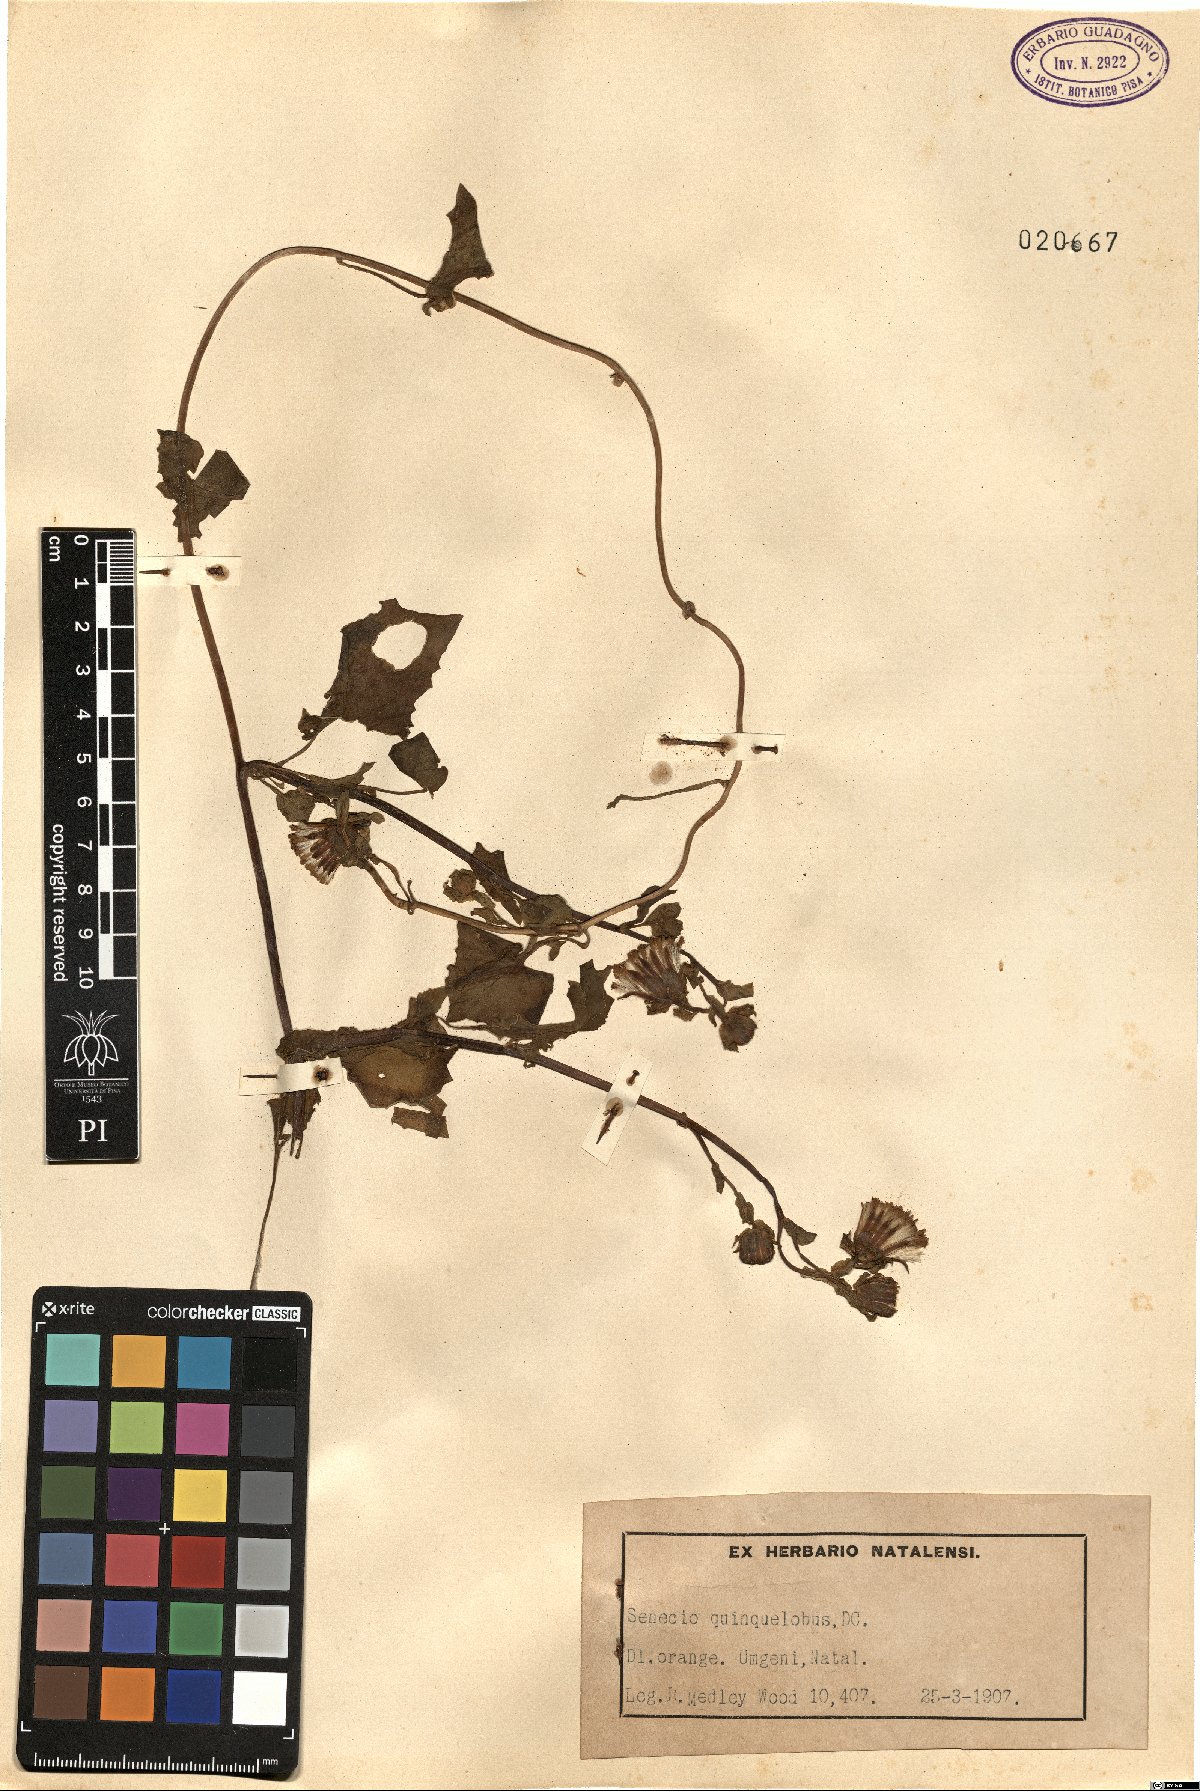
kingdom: Plantae
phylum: Tracheophyta
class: Magnoliopsida
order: Asterales
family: Asteraceae
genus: Senecio
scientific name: Senecio quinquelobus
